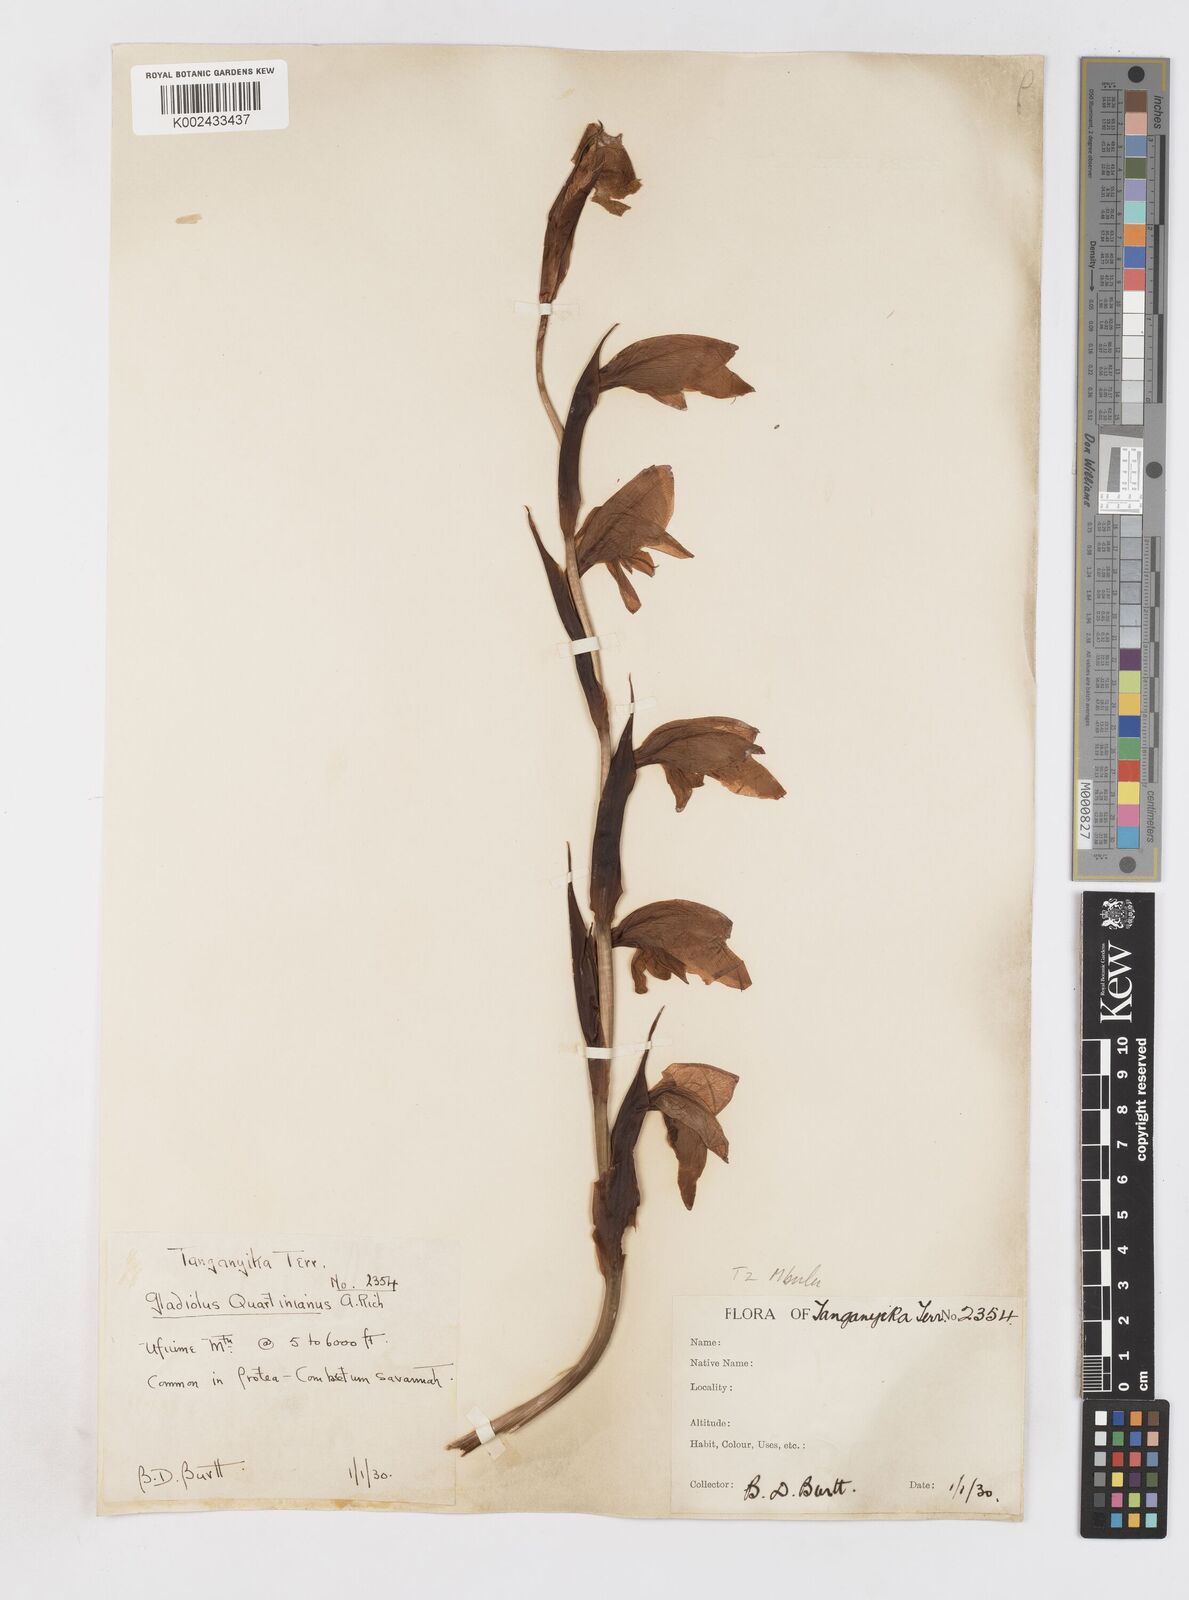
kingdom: Plantae
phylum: Tracheophyta
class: Liliopsida
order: Asparagales
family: Iridaceae
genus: Gladiolus
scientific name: Gladiolus dalenii
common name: Cornflag
